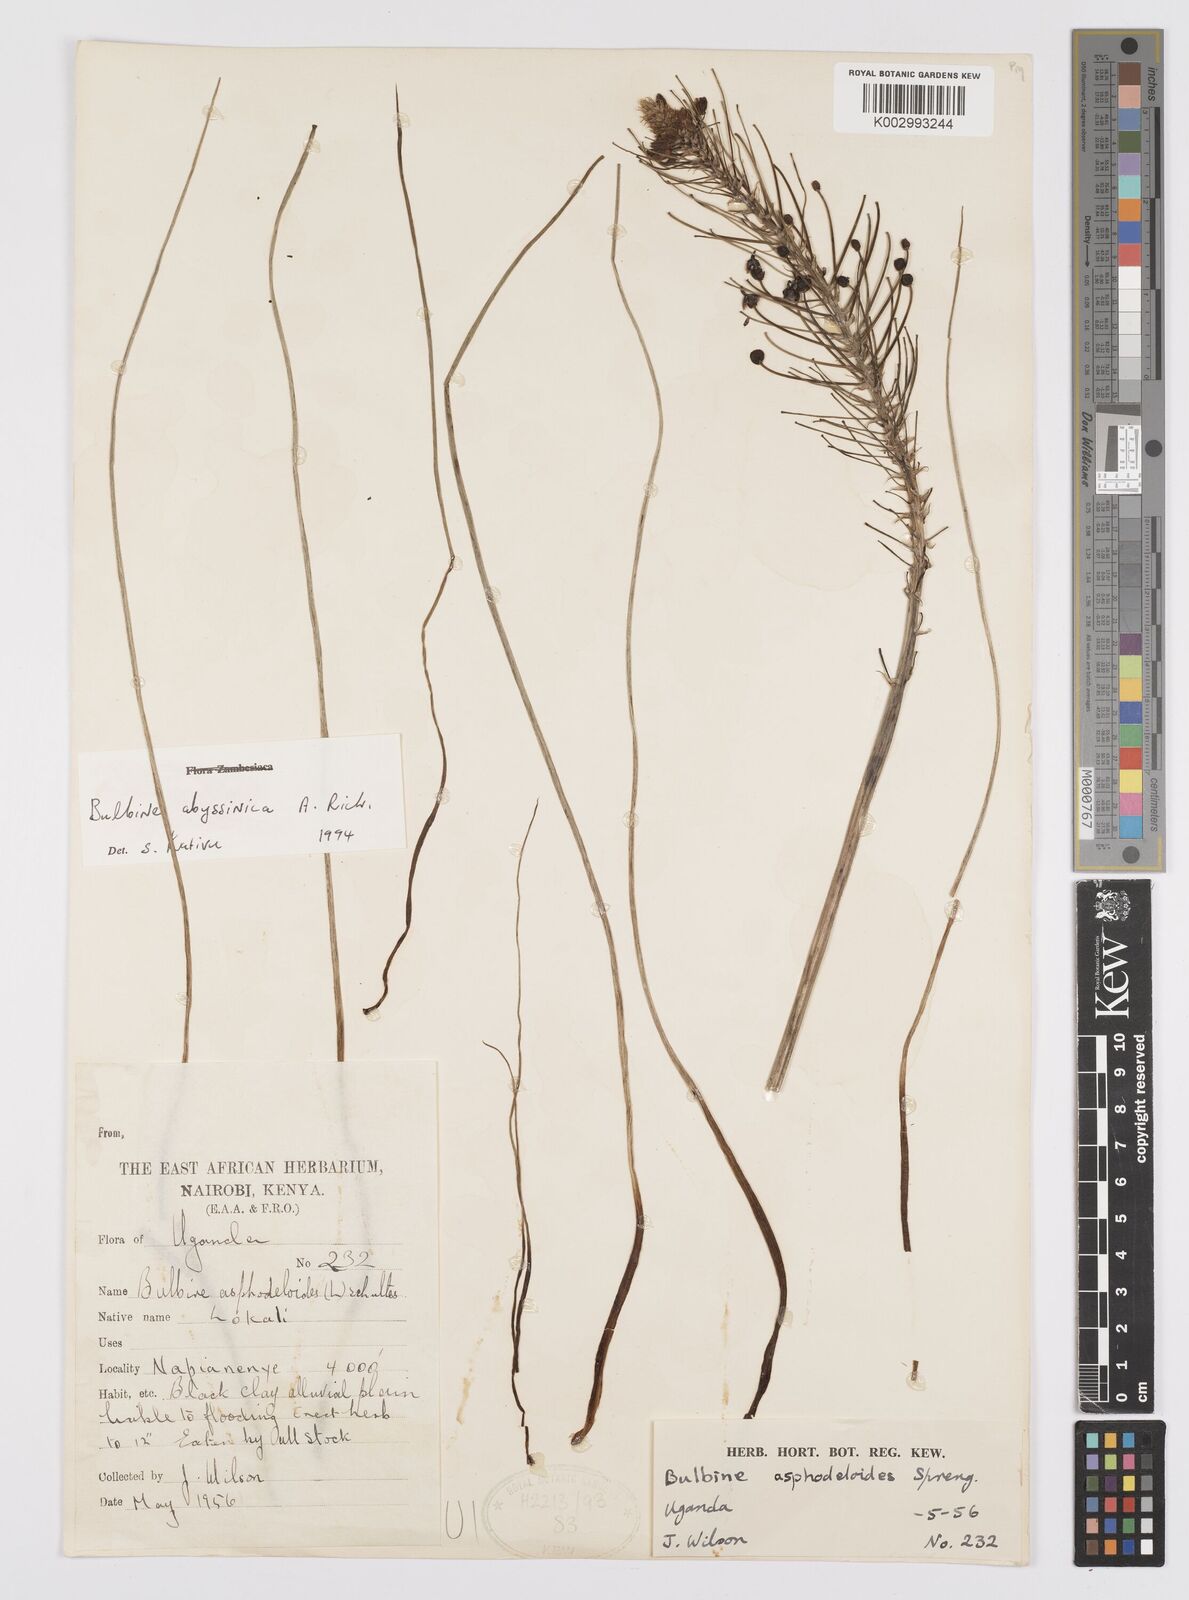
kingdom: Plantae
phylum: Tracheophyta
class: Liliopsida
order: Asparagales
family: Asphodelaceae
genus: Bulbine
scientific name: Bulbine abyssinica
